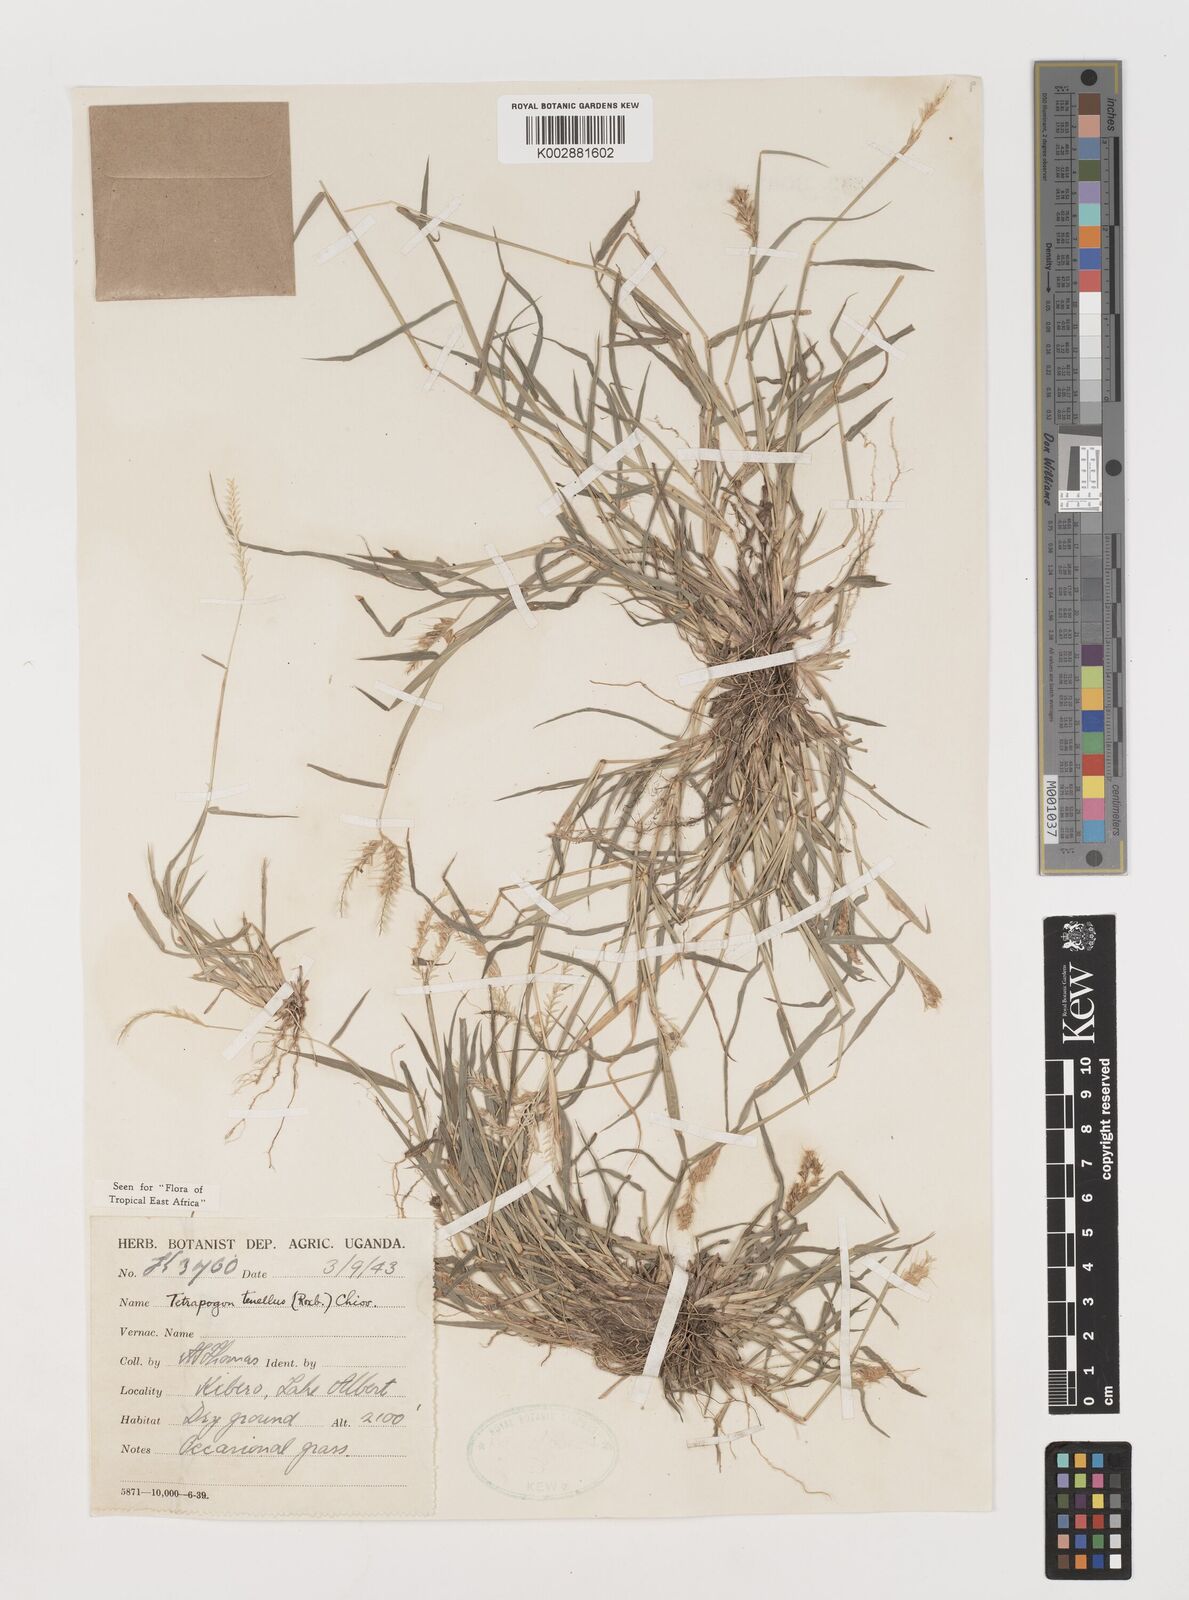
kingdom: Plantae
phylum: Tracheophyta
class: Liliopsida
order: Poales
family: Poaceae
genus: Tetrapogon
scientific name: Tetrapogon tenellus
